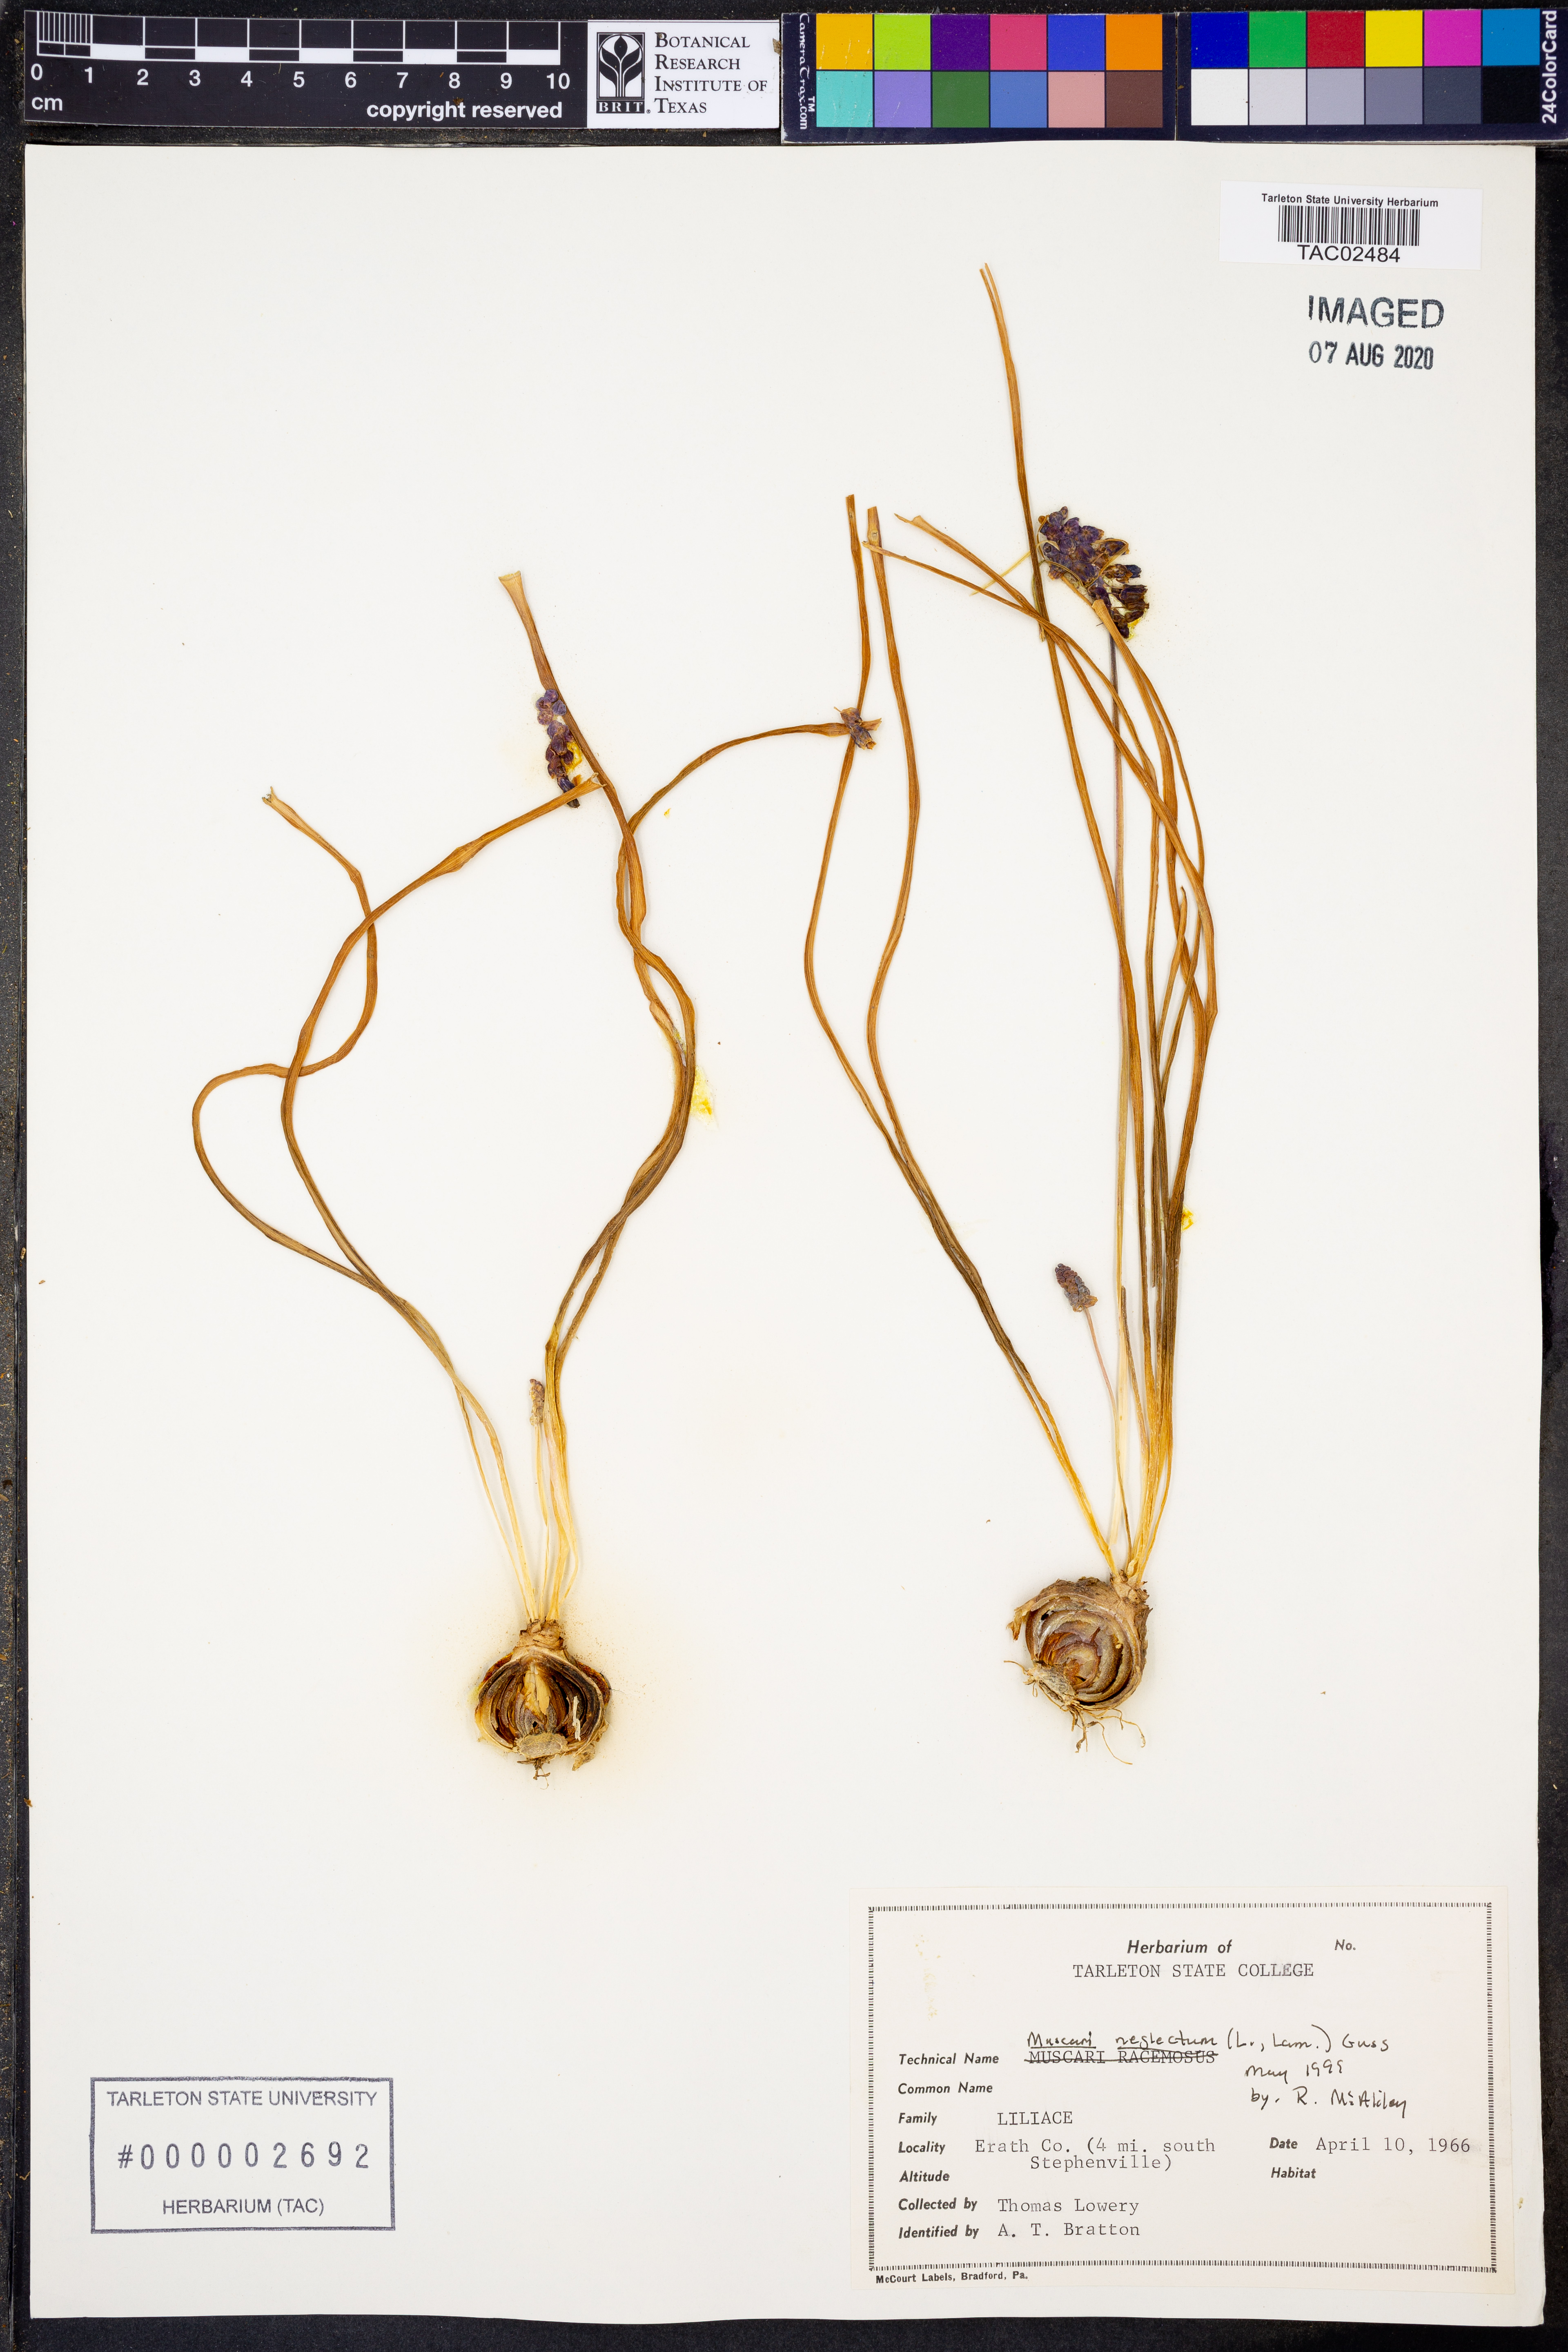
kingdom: Plantae
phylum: Tracheophyta
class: Liliopsida
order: Asparagales
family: Asparagaceae
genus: Muscari
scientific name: Muscari neglectum
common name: Grape-hyacinth
